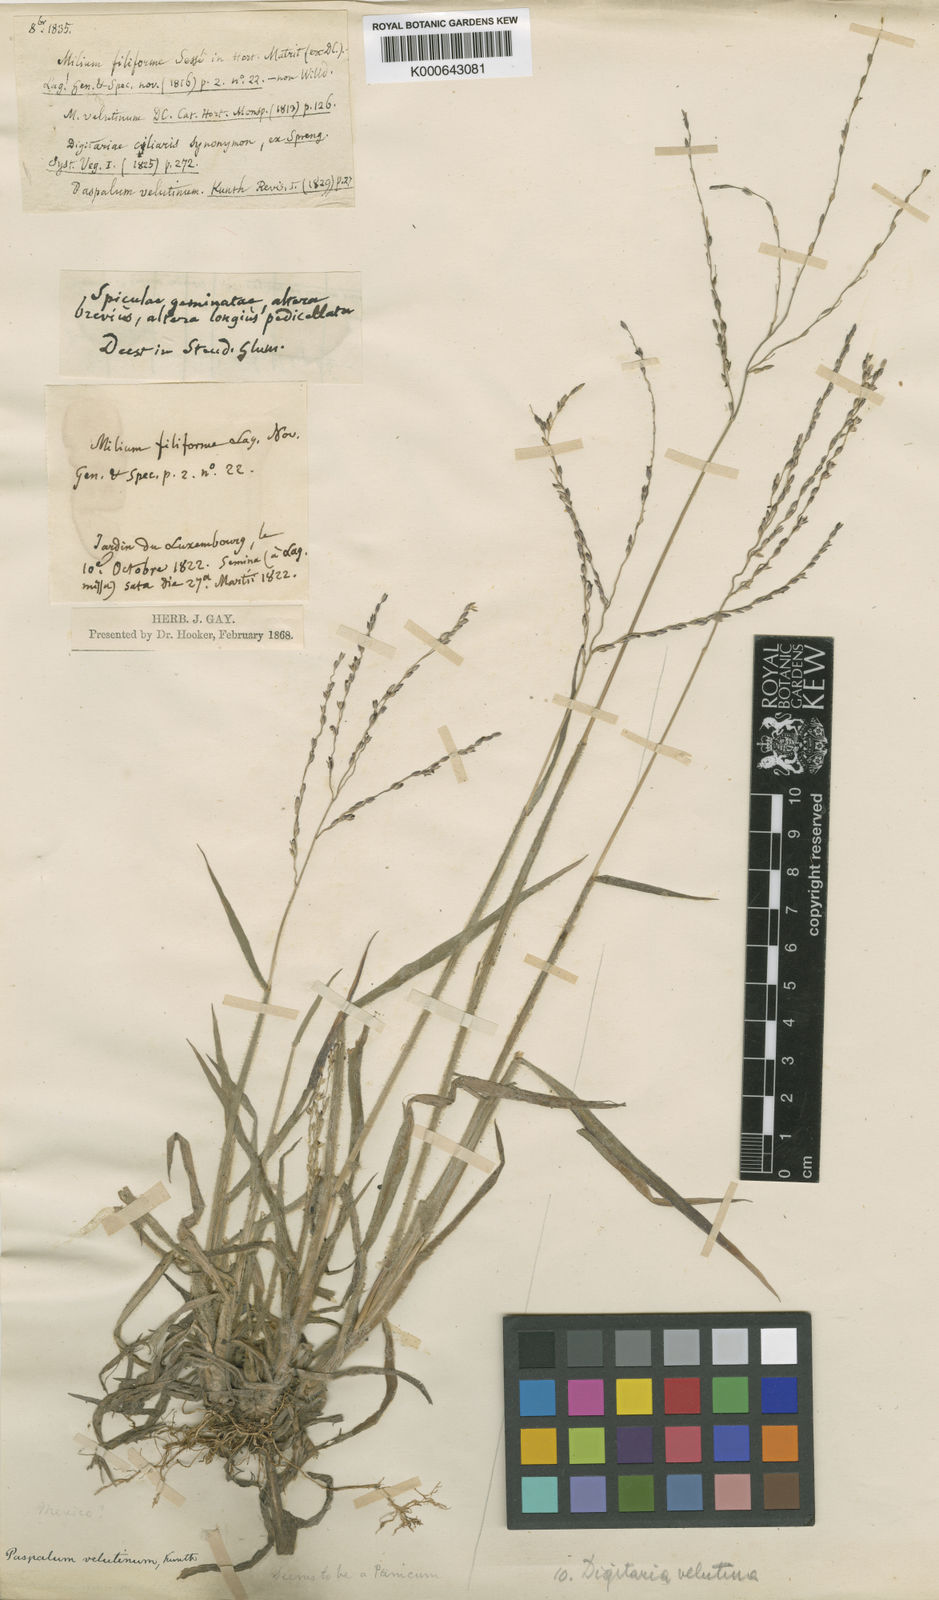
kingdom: Plantae
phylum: Tracheophyta
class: Liliopsida
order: Poales
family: Poaceae
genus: Digitaria
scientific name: Digitaria leucites
